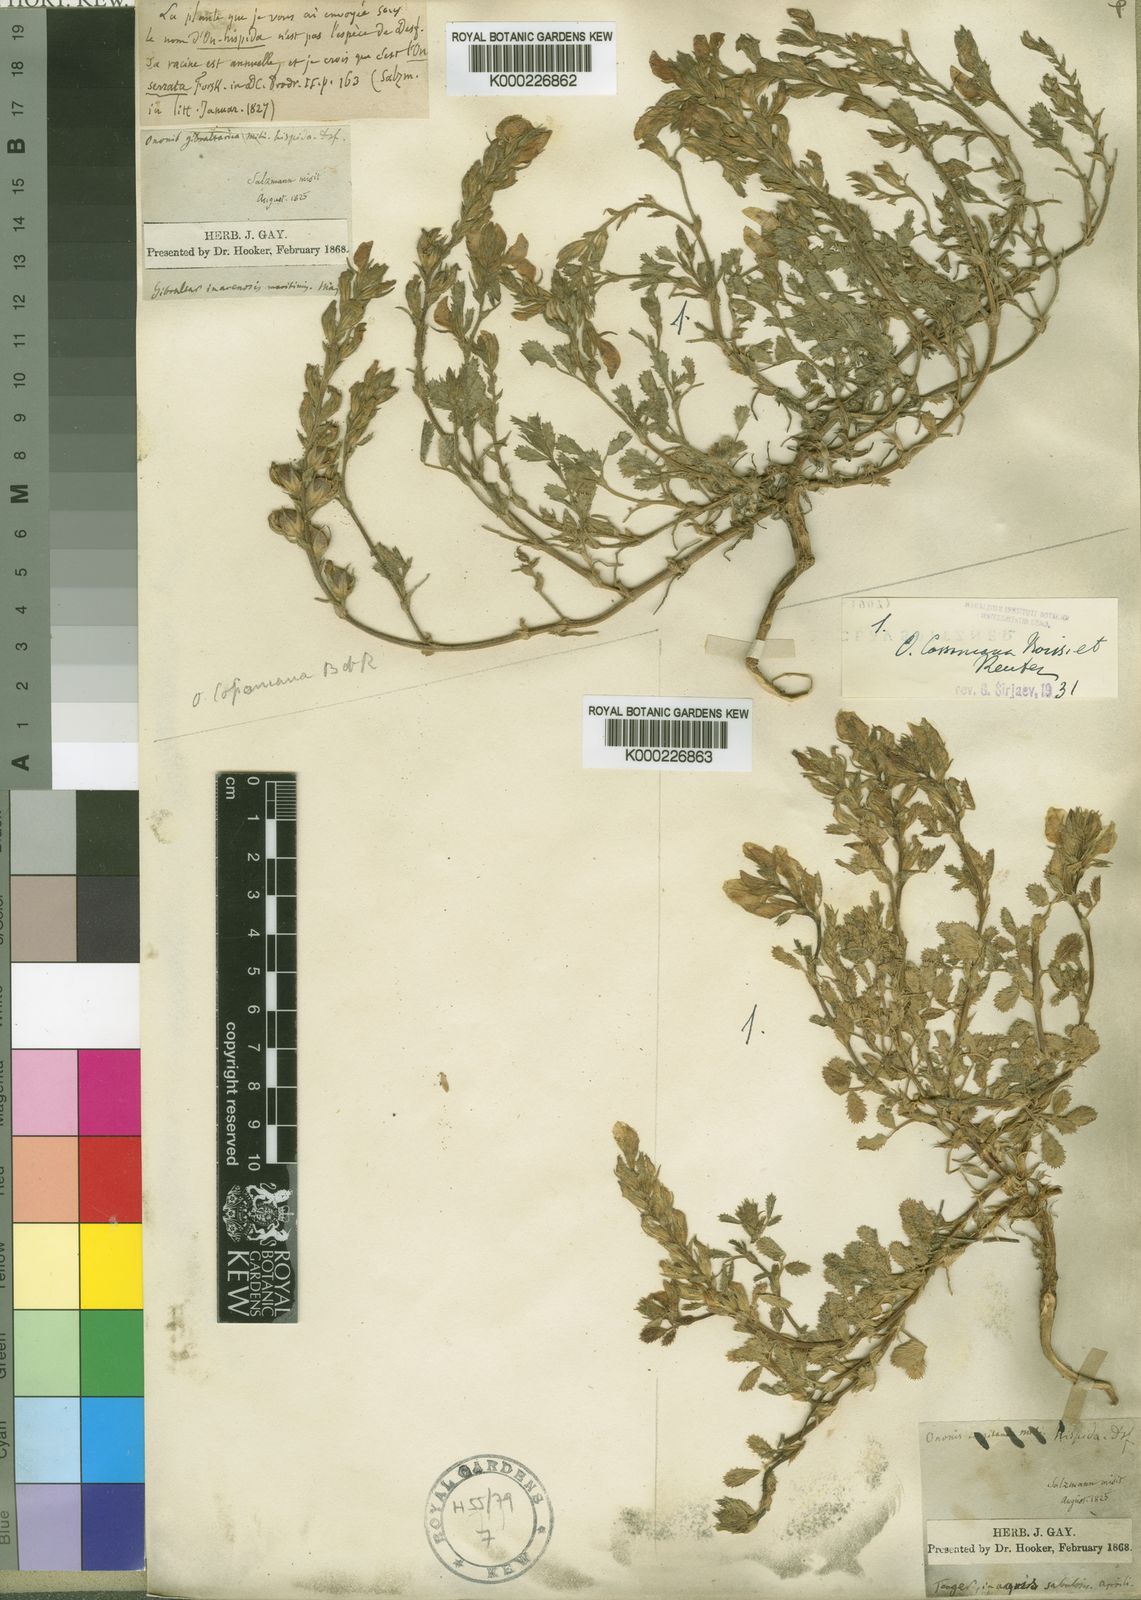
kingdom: Plantae
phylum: Tracheophyta
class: Magnoliopsida
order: Fabales
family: Fabaceae
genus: Ononis
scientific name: Ononis cossoniana
